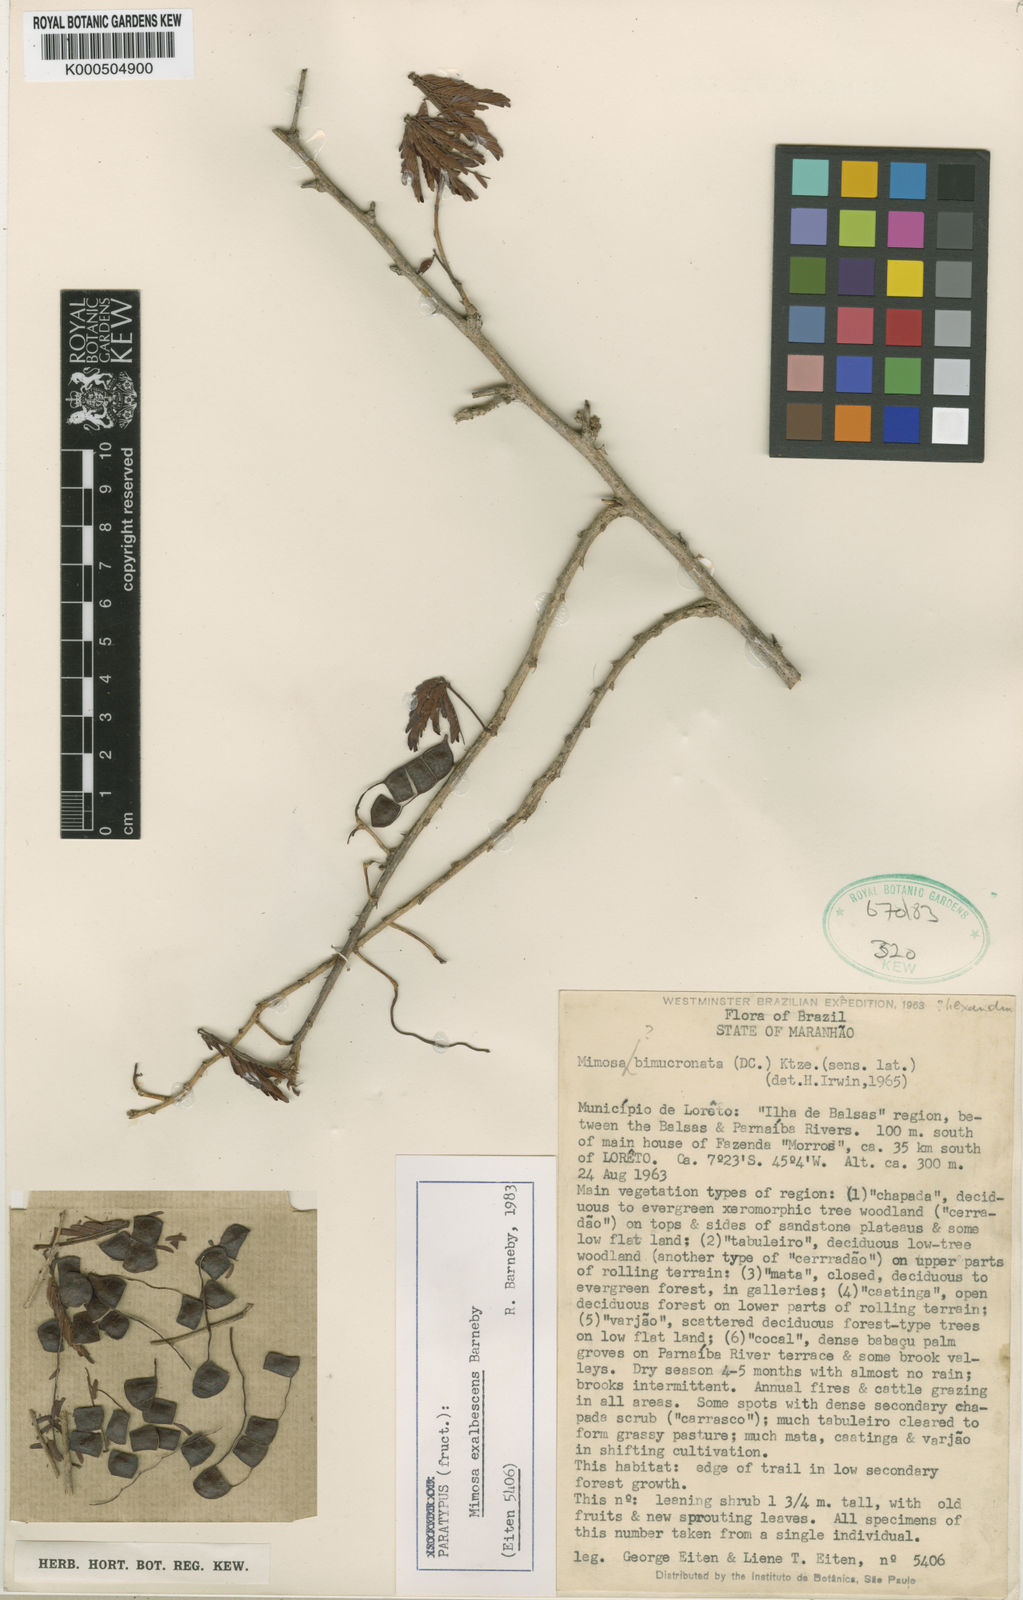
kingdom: Plantae
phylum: Tracheophyta
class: Magnoliopsida
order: Fabales
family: Fabaceae
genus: Mimosa
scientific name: Mimosa exalbescens
